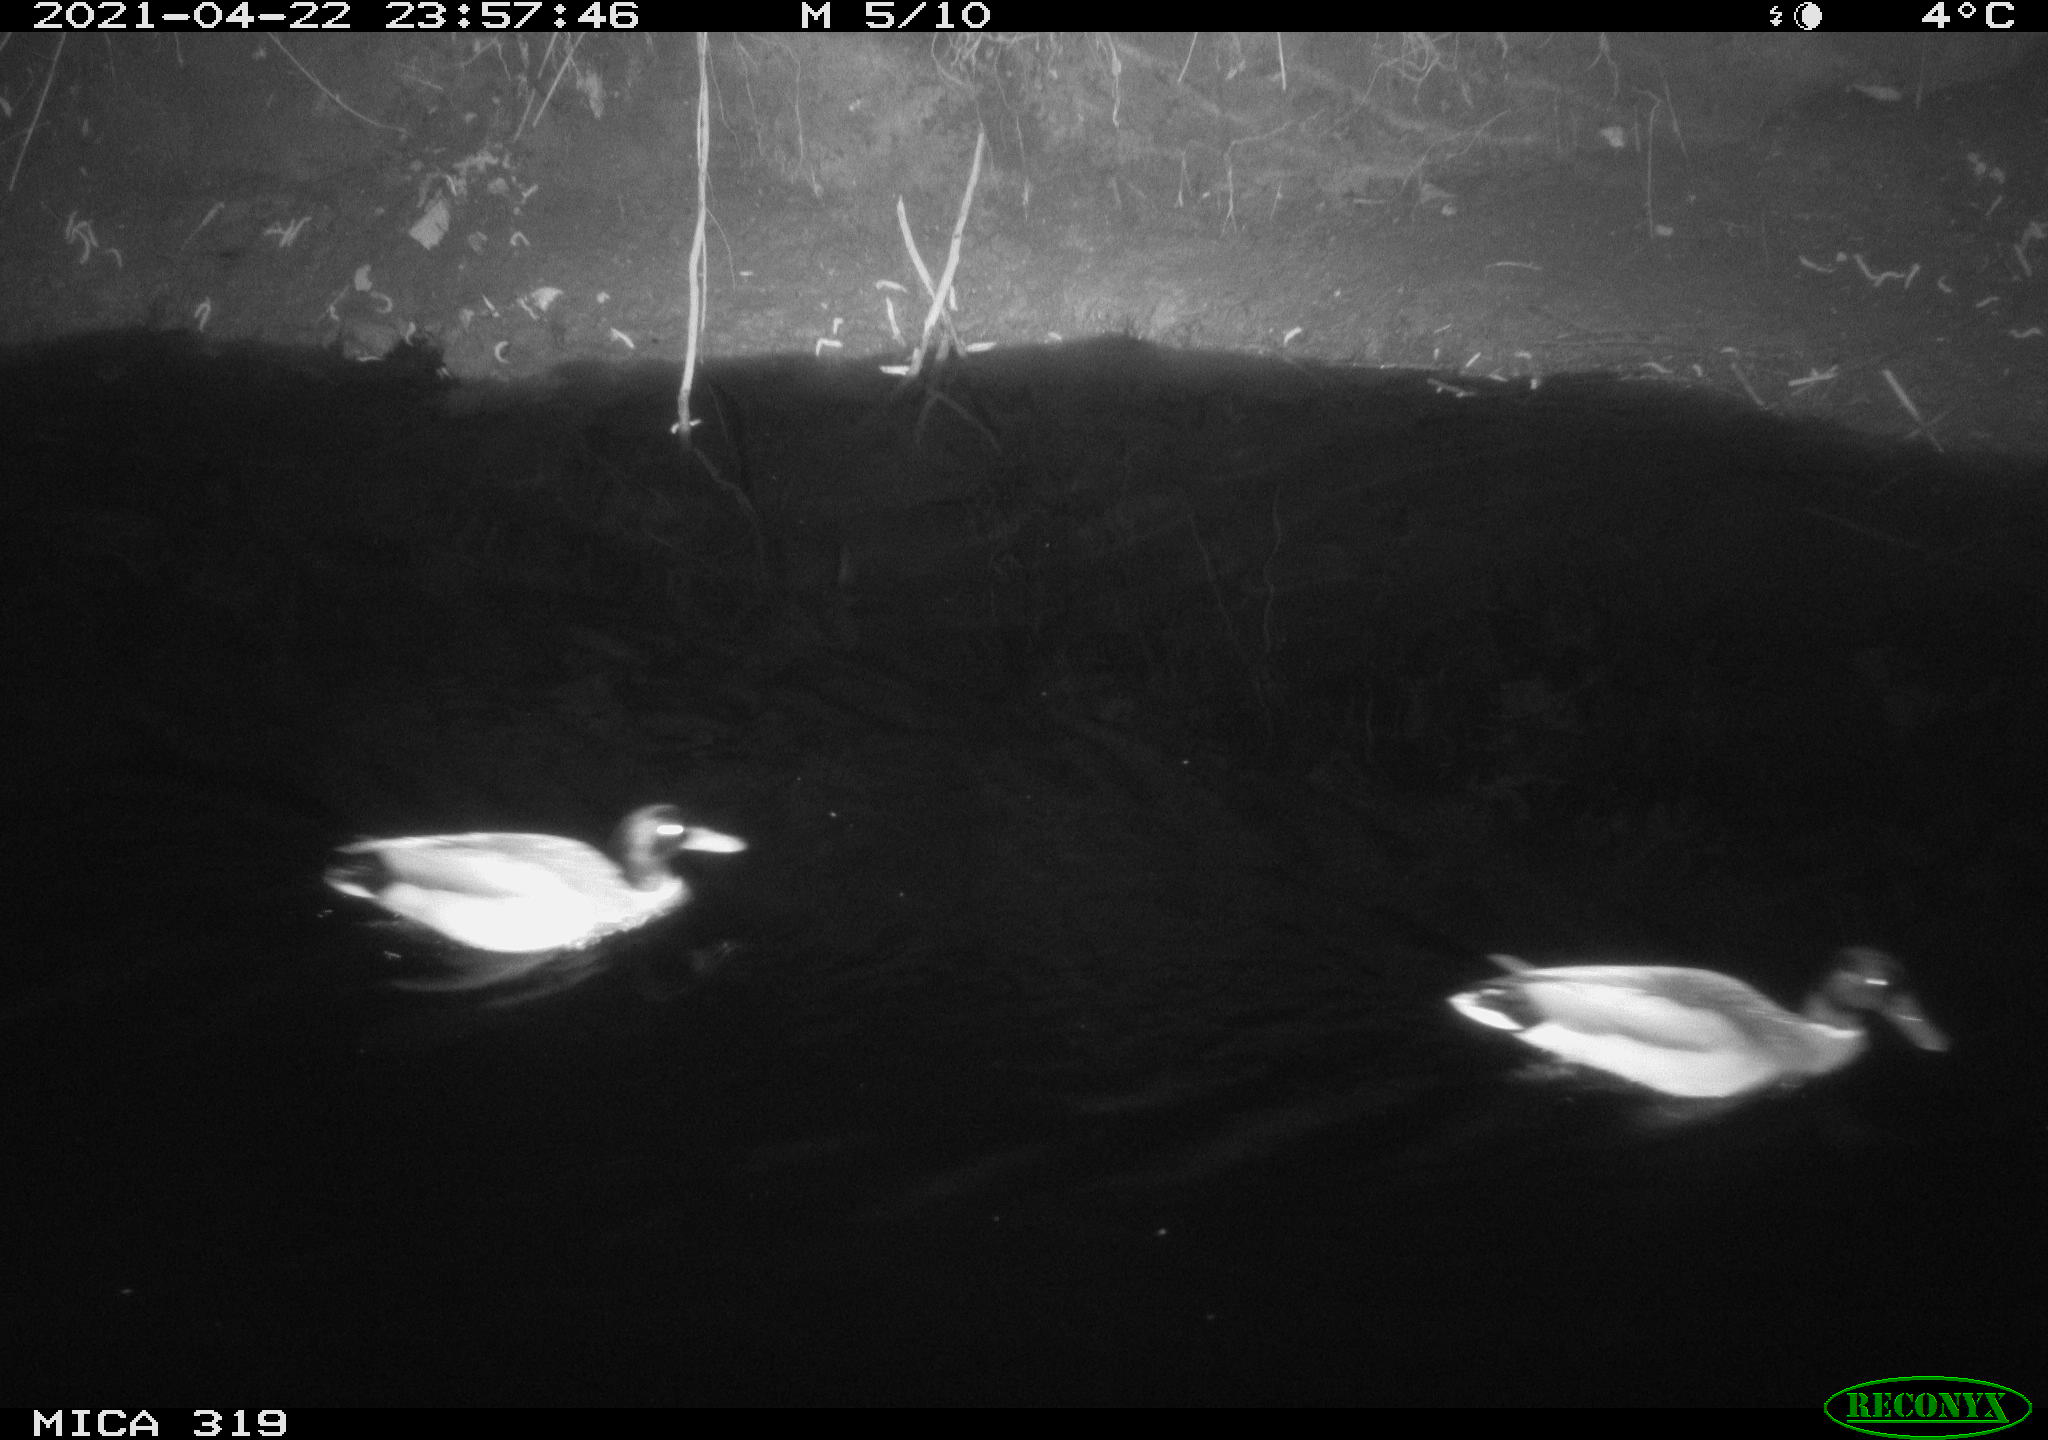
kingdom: Animalia
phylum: Chordata
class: Aves
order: Anseriformes
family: Anatidae
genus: Anas
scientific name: Anas platyrhynchos
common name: Mallard
